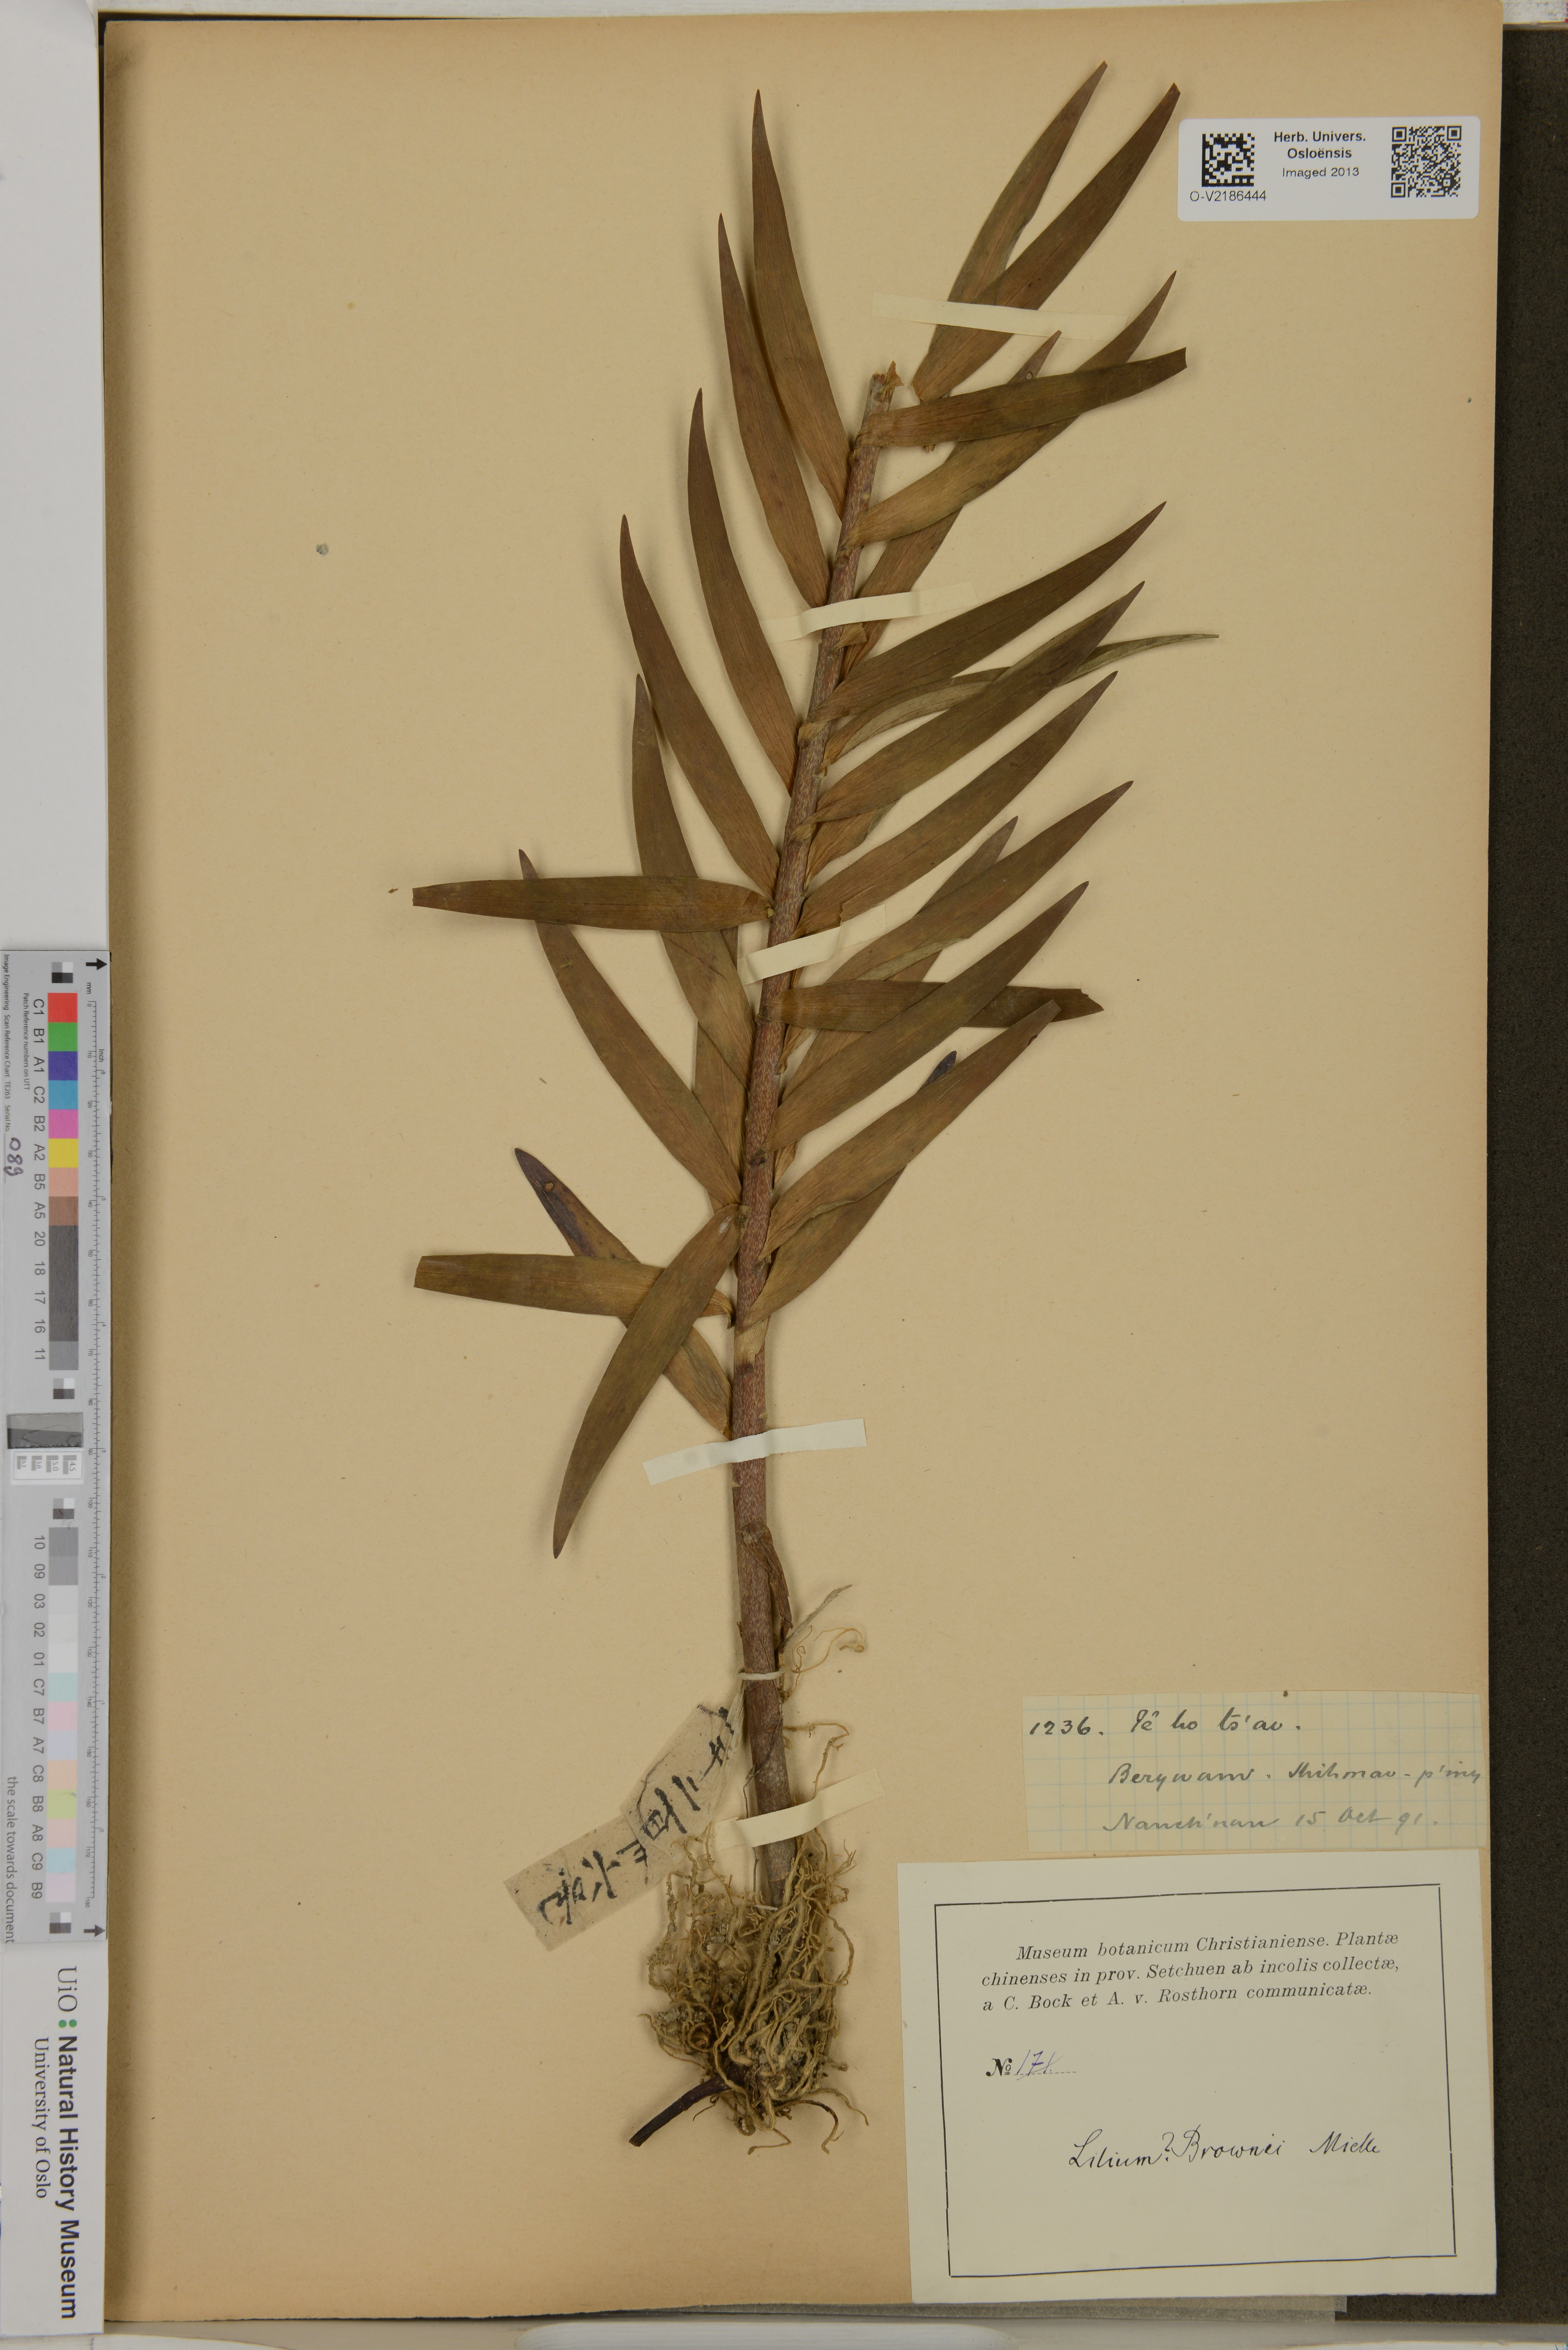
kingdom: Plantae
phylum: Tracheophyta
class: Liliopsida
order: Liliales
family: Liliaceae
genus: Lilium
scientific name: Lilium brownii
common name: Brown's lily
